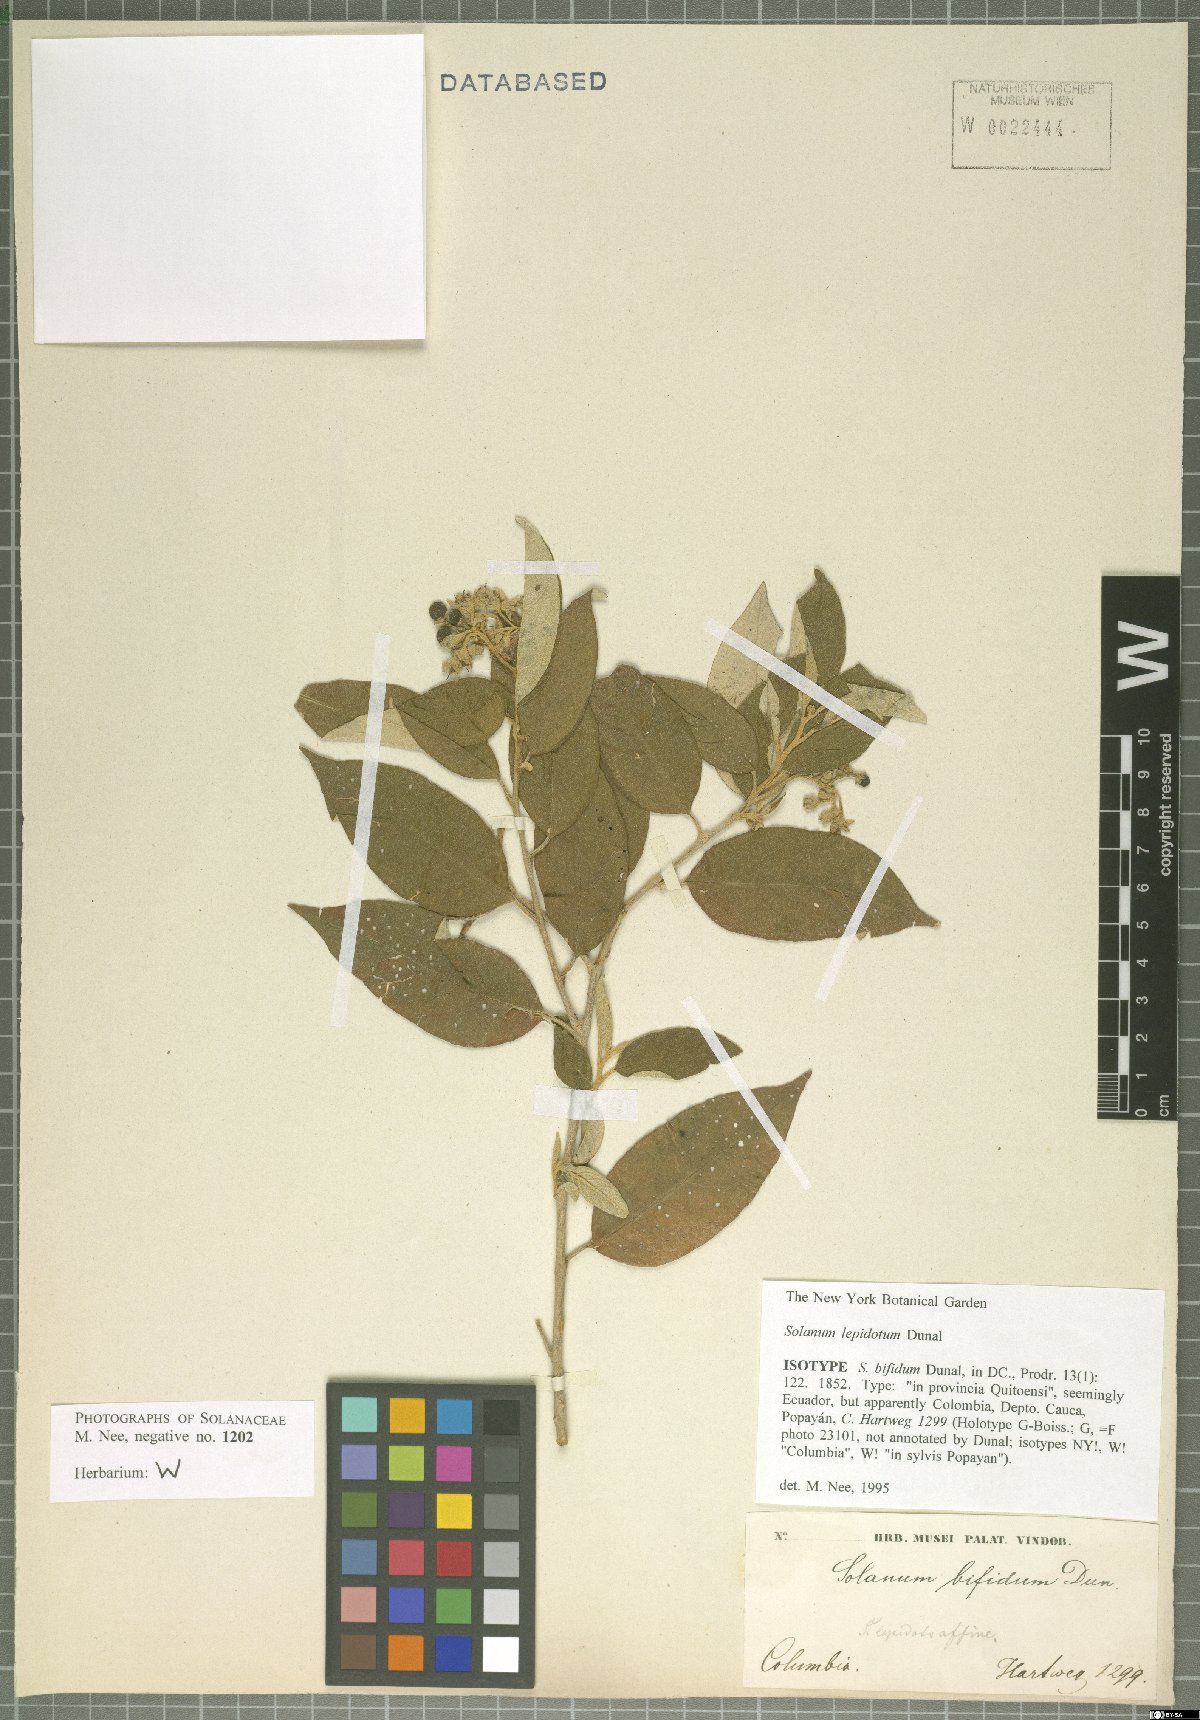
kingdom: Plantae
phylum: Tracheophyta
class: Magnoliopsida
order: Solanales
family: Solanaceae
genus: Solanum
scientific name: Solanum lepidotum
